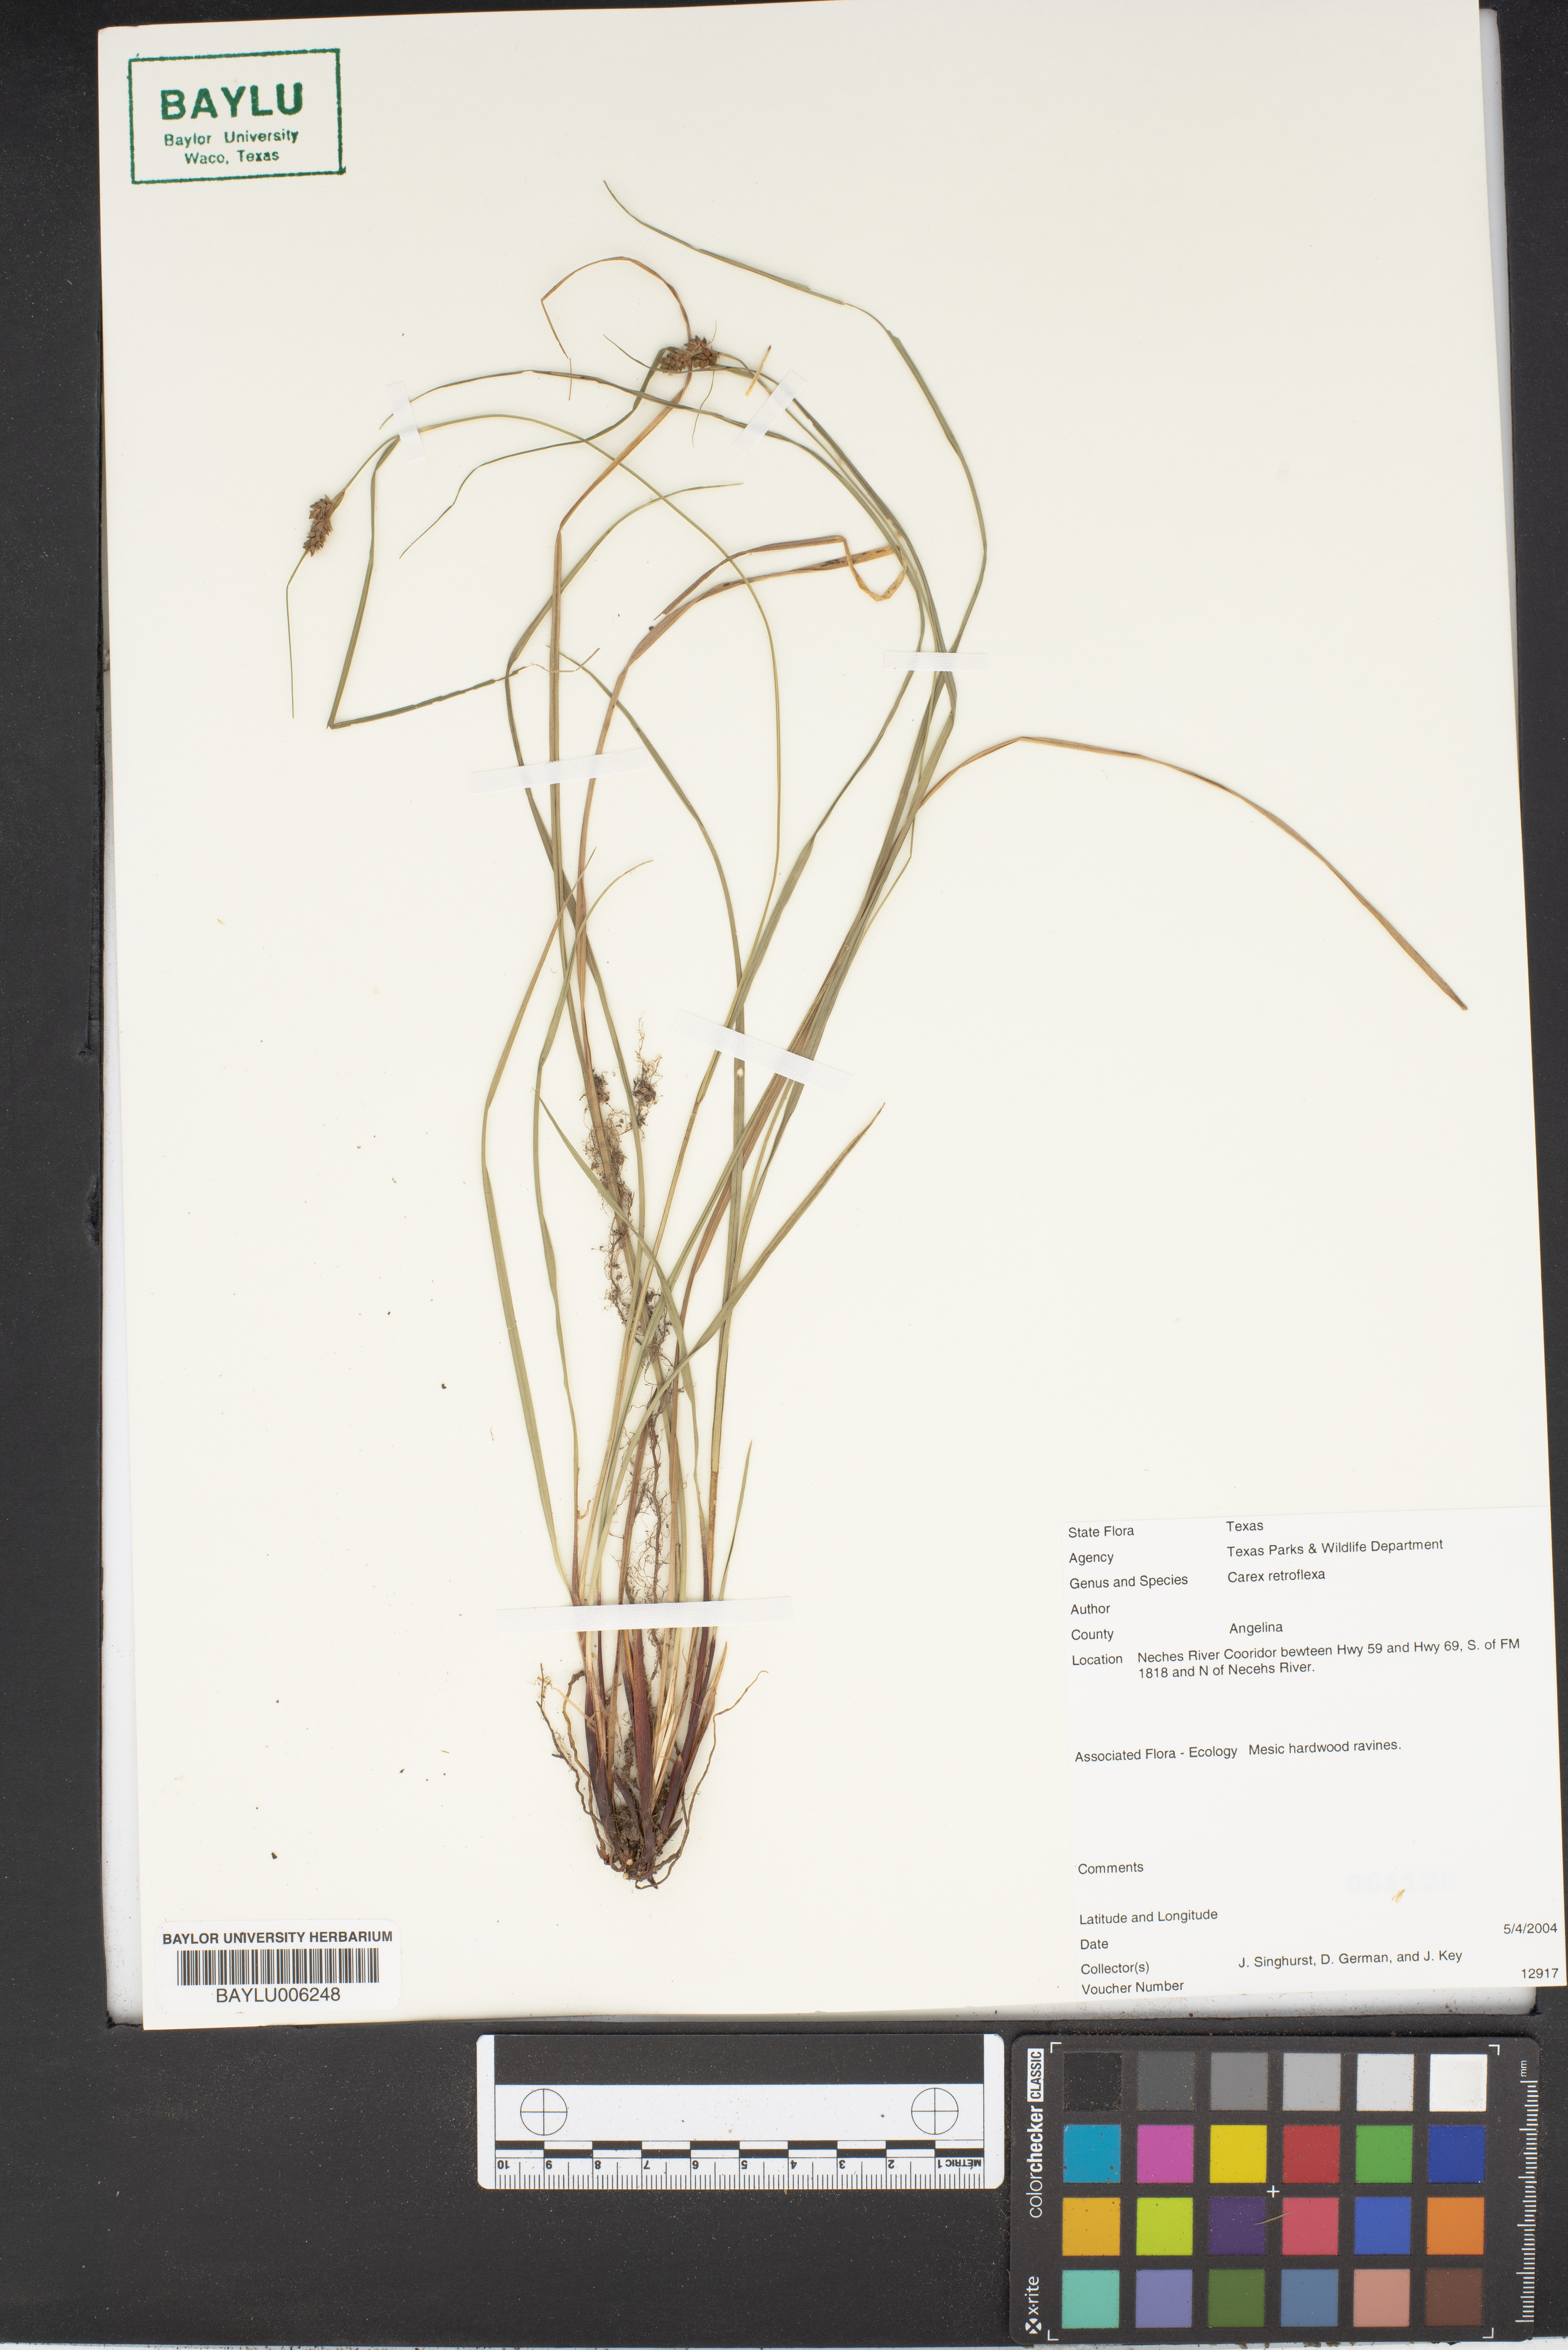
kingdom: Plantae
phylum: Tracheophyta
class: Liliopsida
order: Poales
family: Cyperaceae
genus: Carex
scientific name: Carex retroflexa
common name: Reflexed sedge
